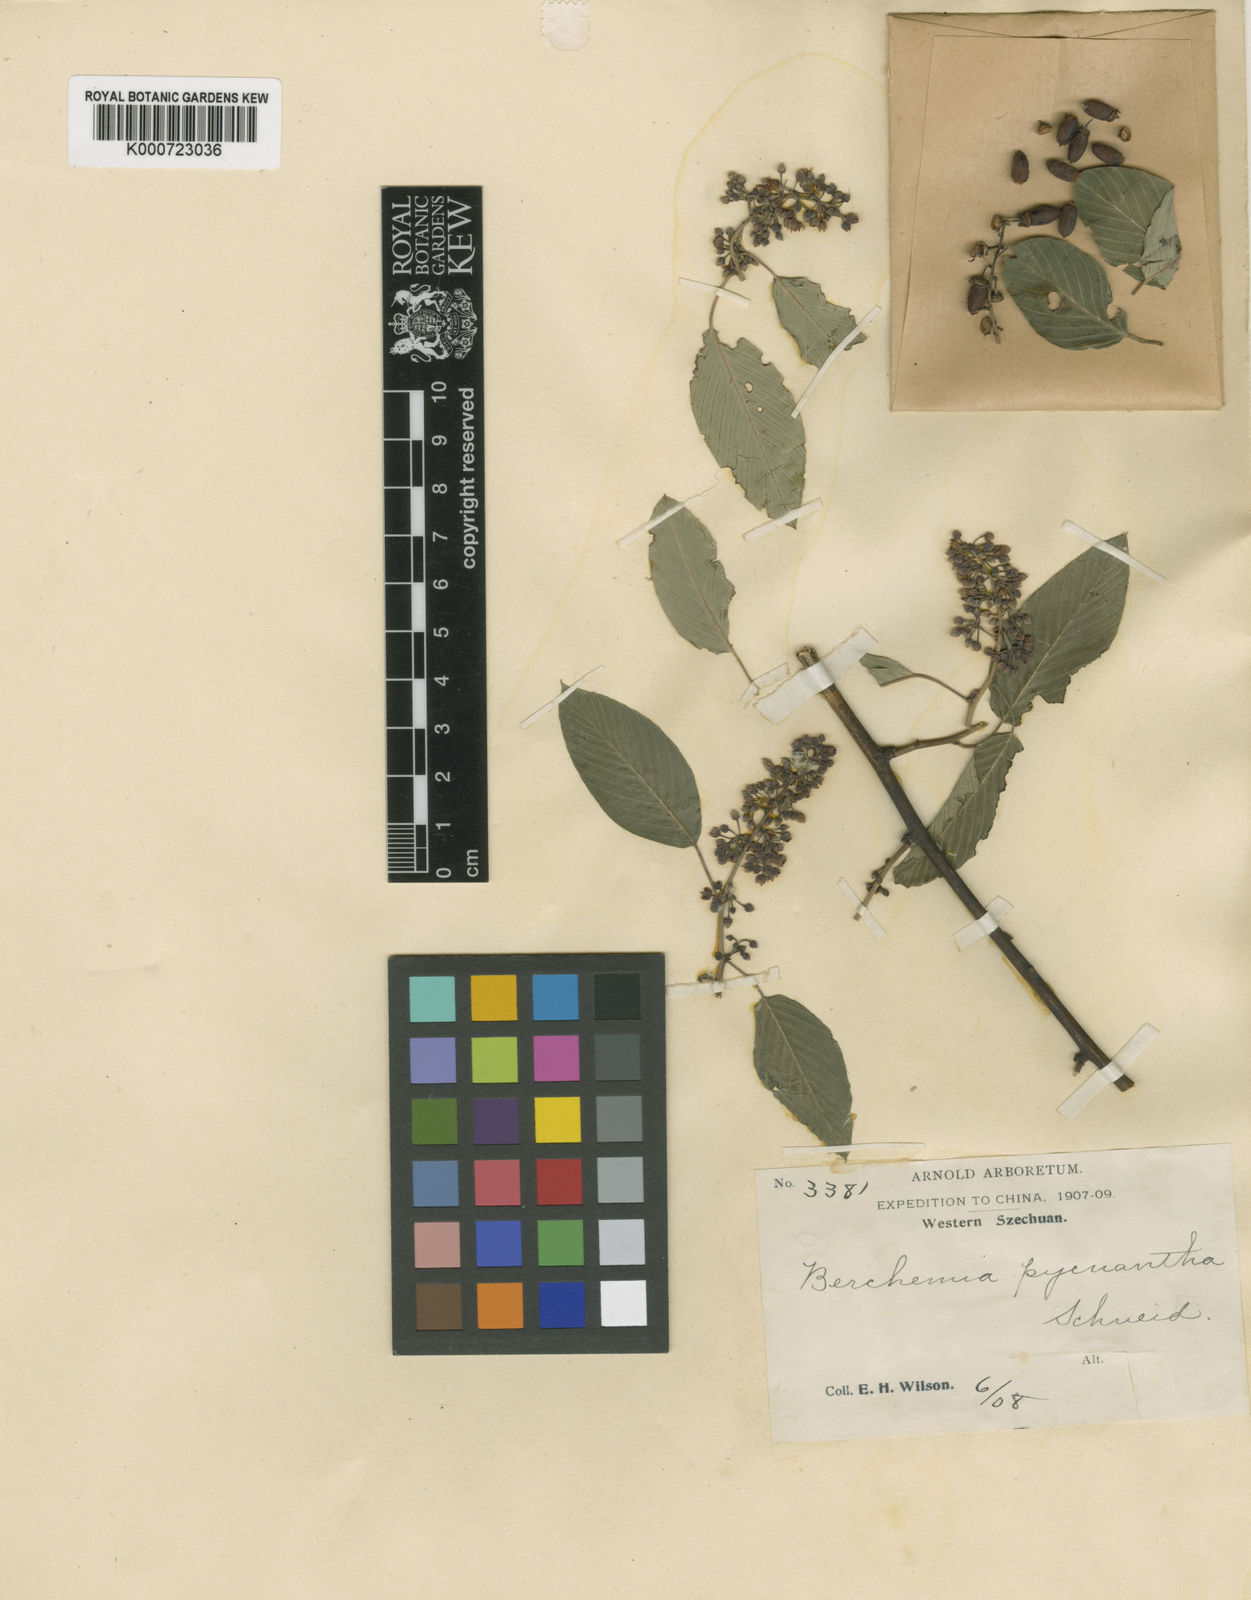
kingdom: Plantae
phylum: Tracheophyta
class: Magnoliopsida
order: Rosales
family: Rhamnaceae
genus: Berchemia
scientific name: Berchemia yunnanensis
